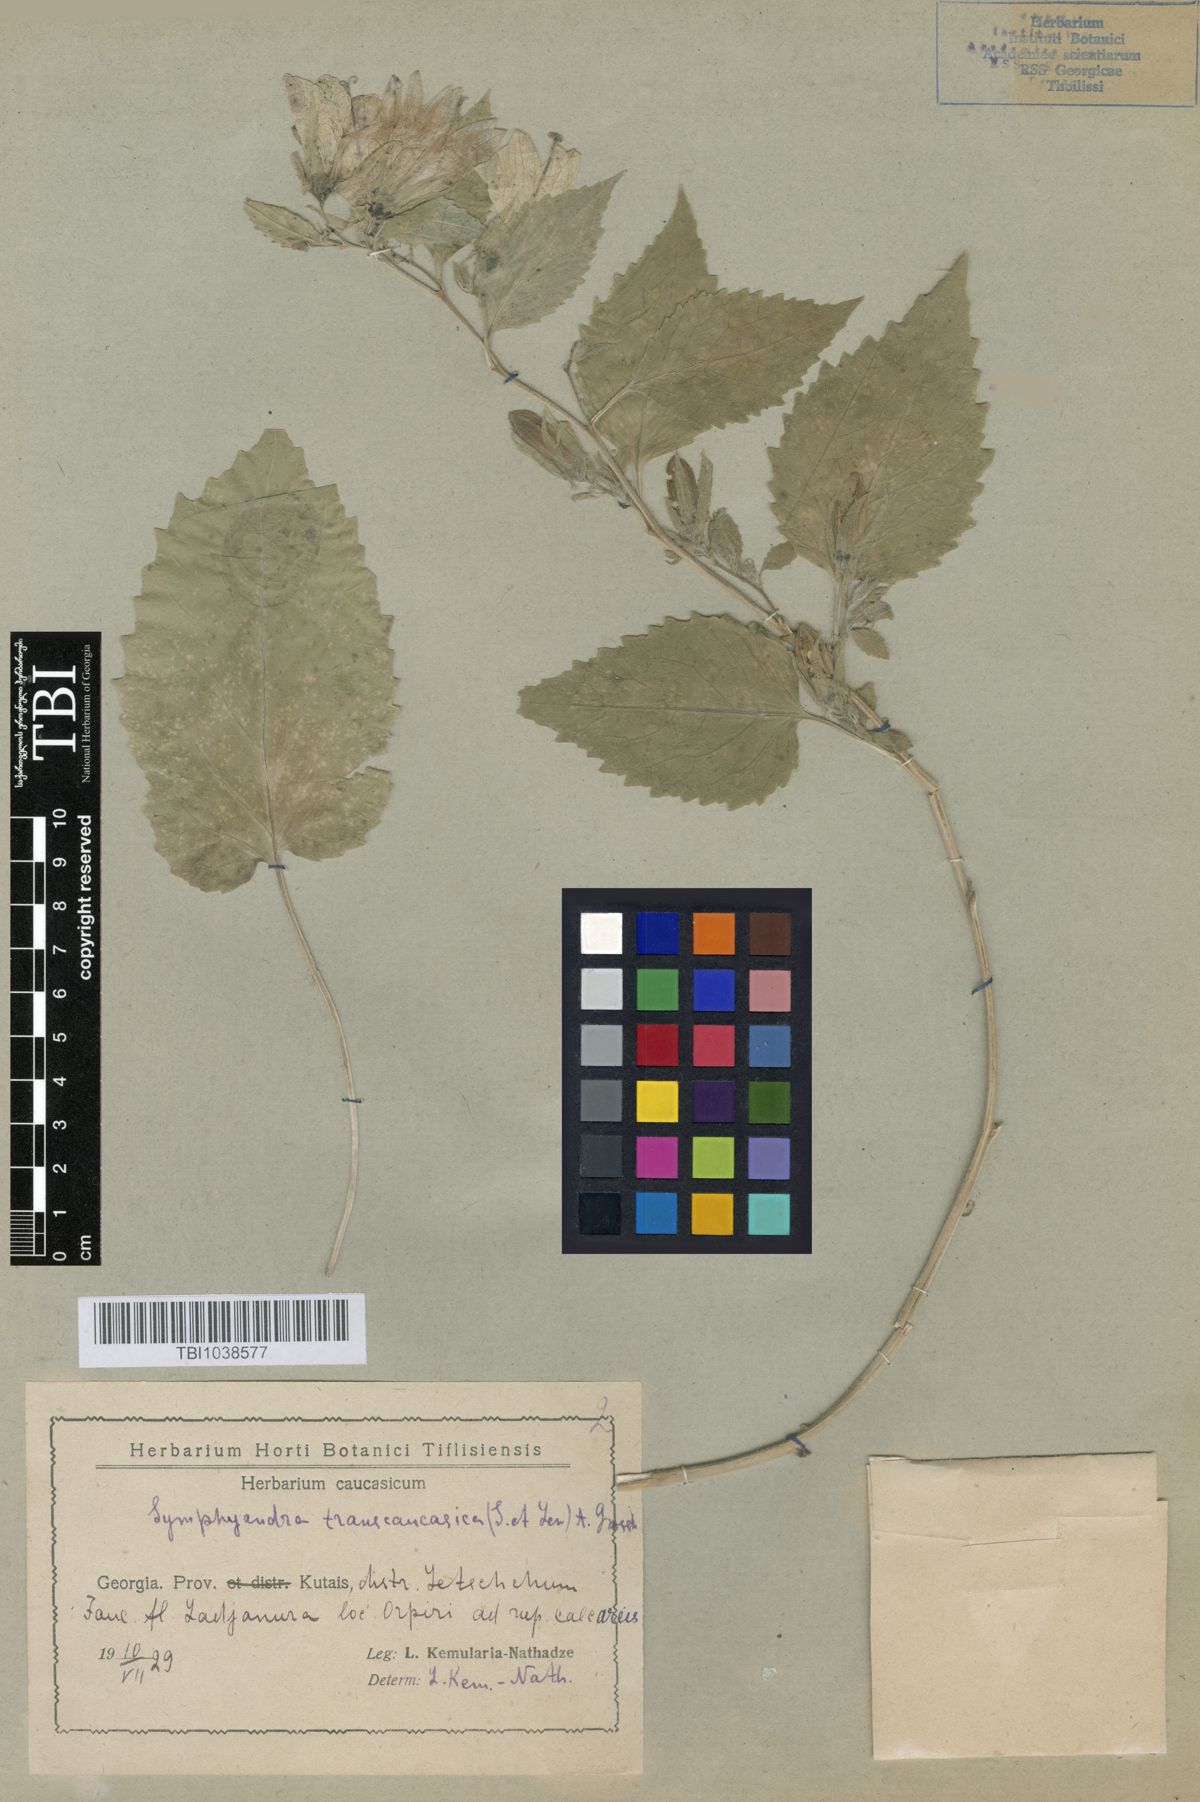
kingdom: Plantae
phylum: Tracheophyta
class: Magnoliopsida
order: Asterales
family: Campanulaceae
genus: Campanula
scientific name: Campanula pendula
